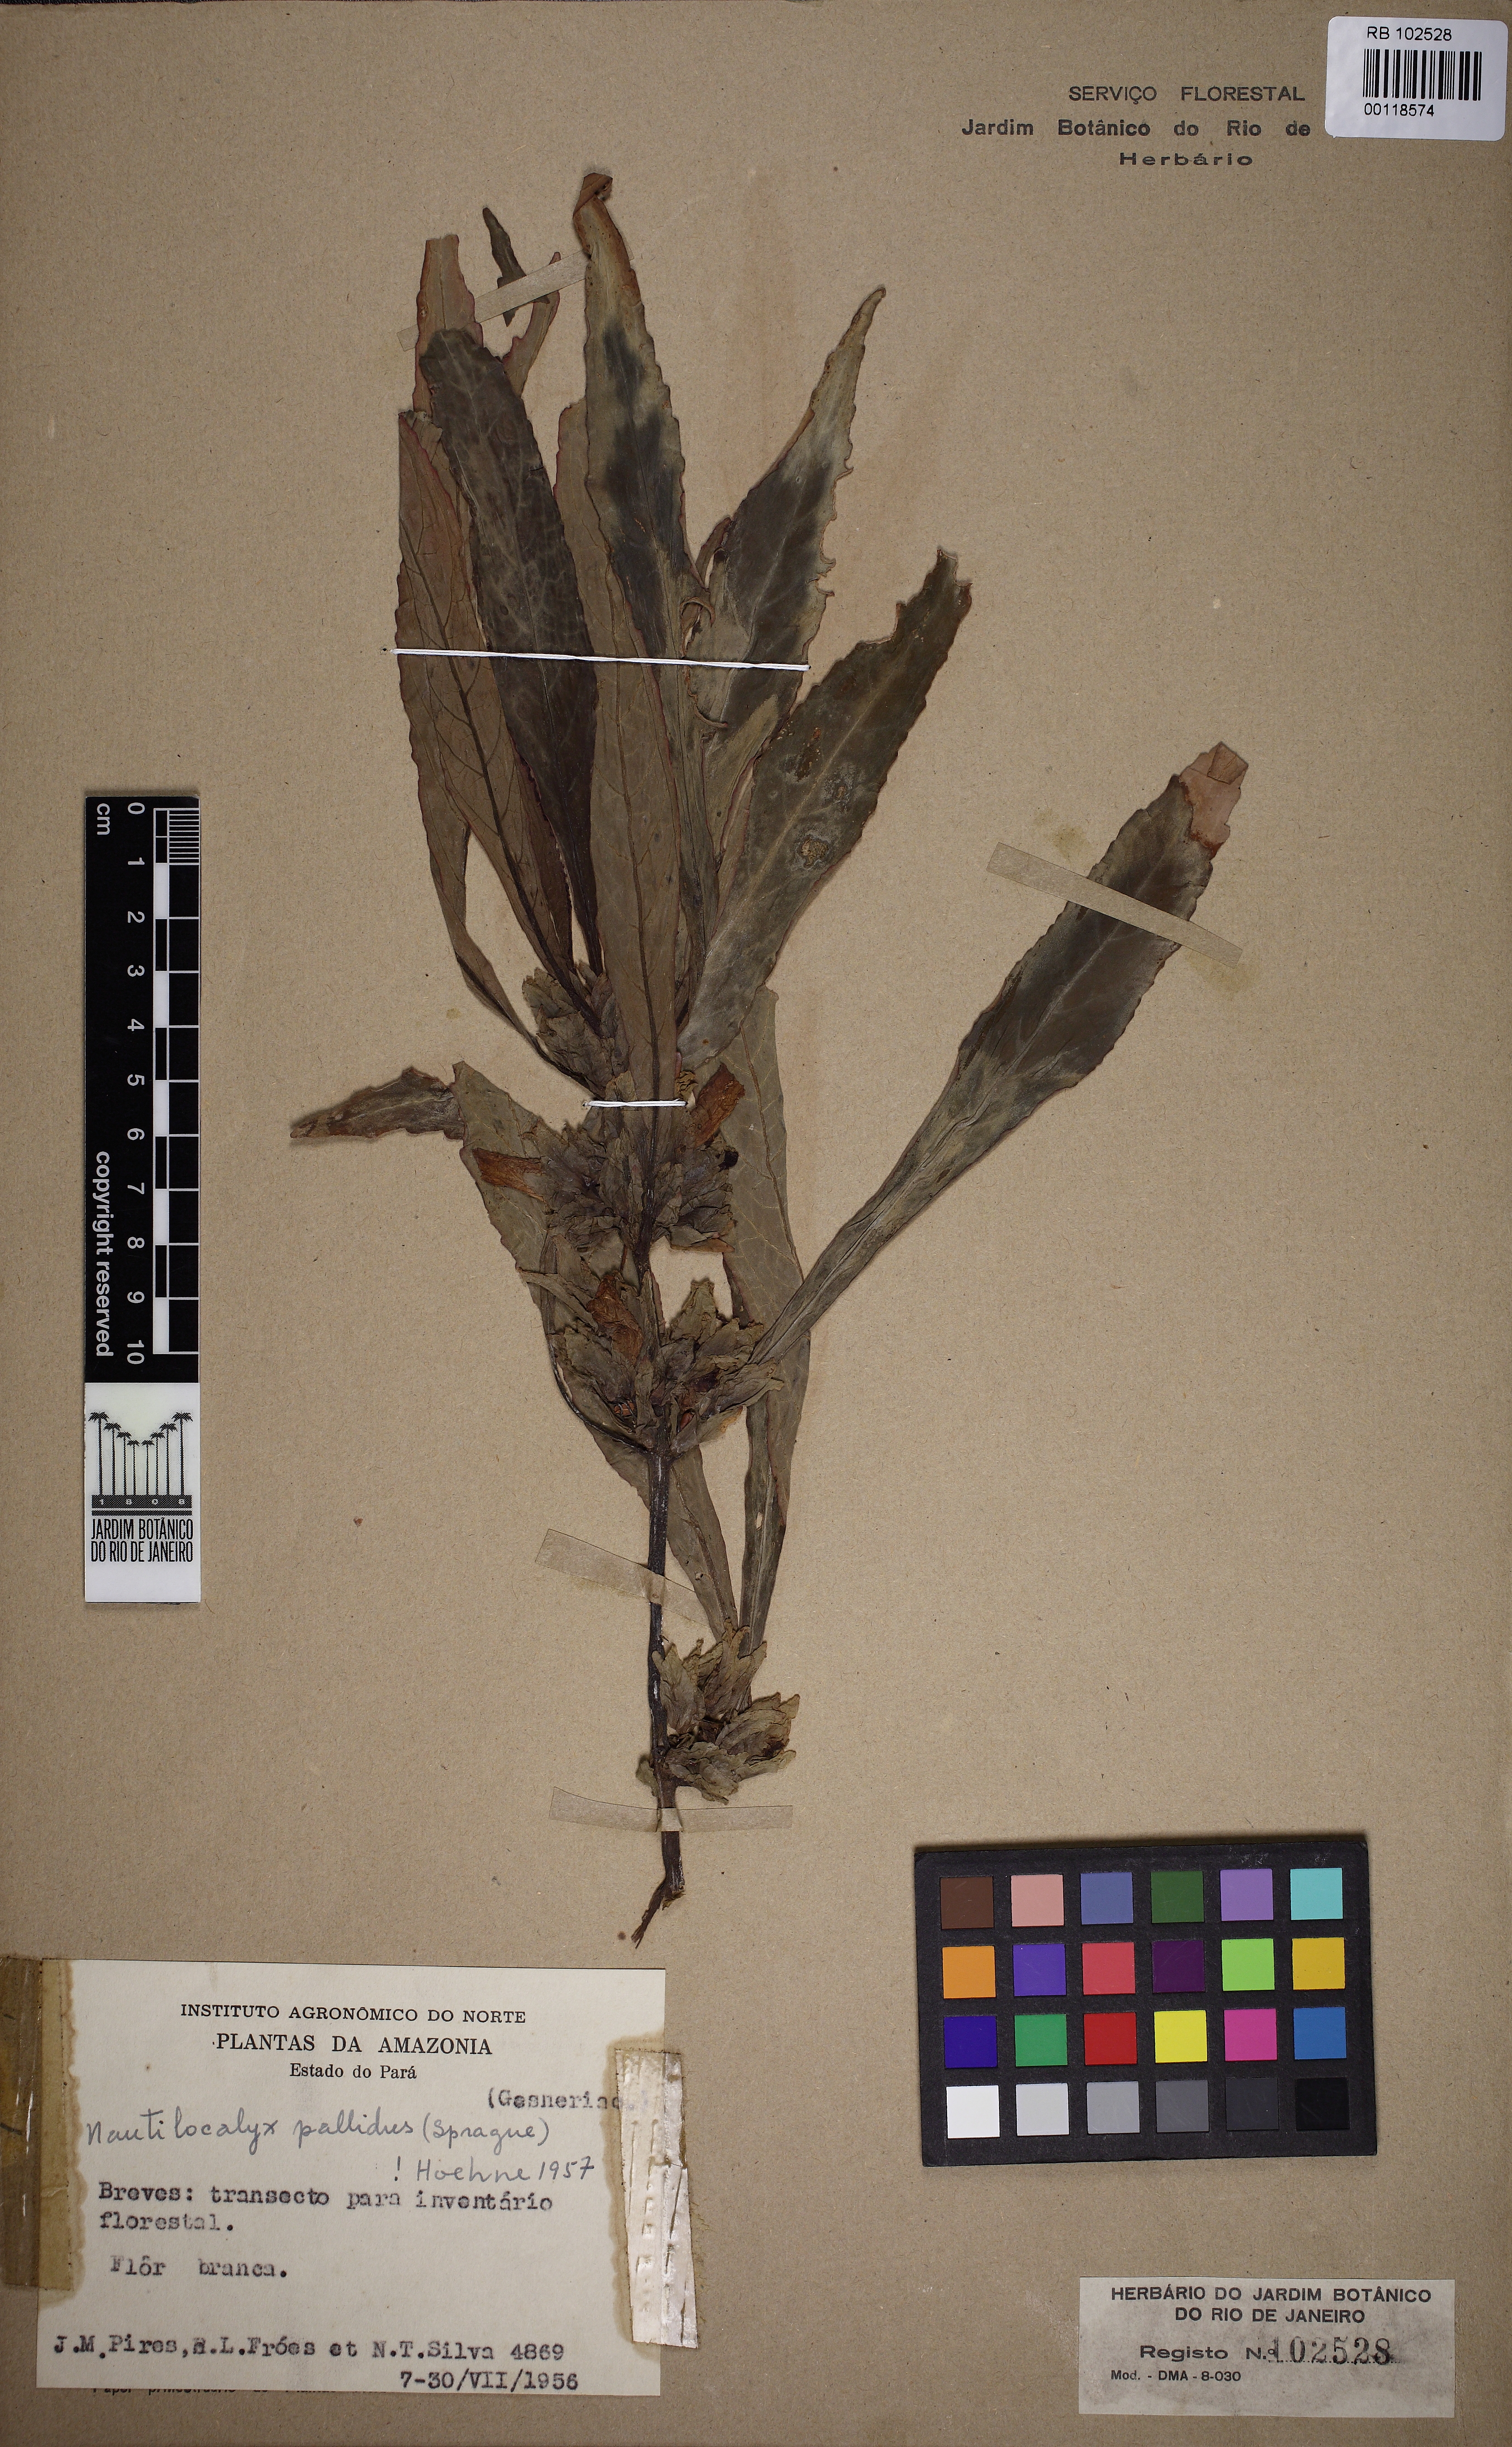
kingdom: Plantae
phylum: Tracheophyta
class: Magnoliopsida
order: Lamiales
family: Gesneriaceae
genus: Nautilocalyx
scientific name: Nautilocalyx pallidus
